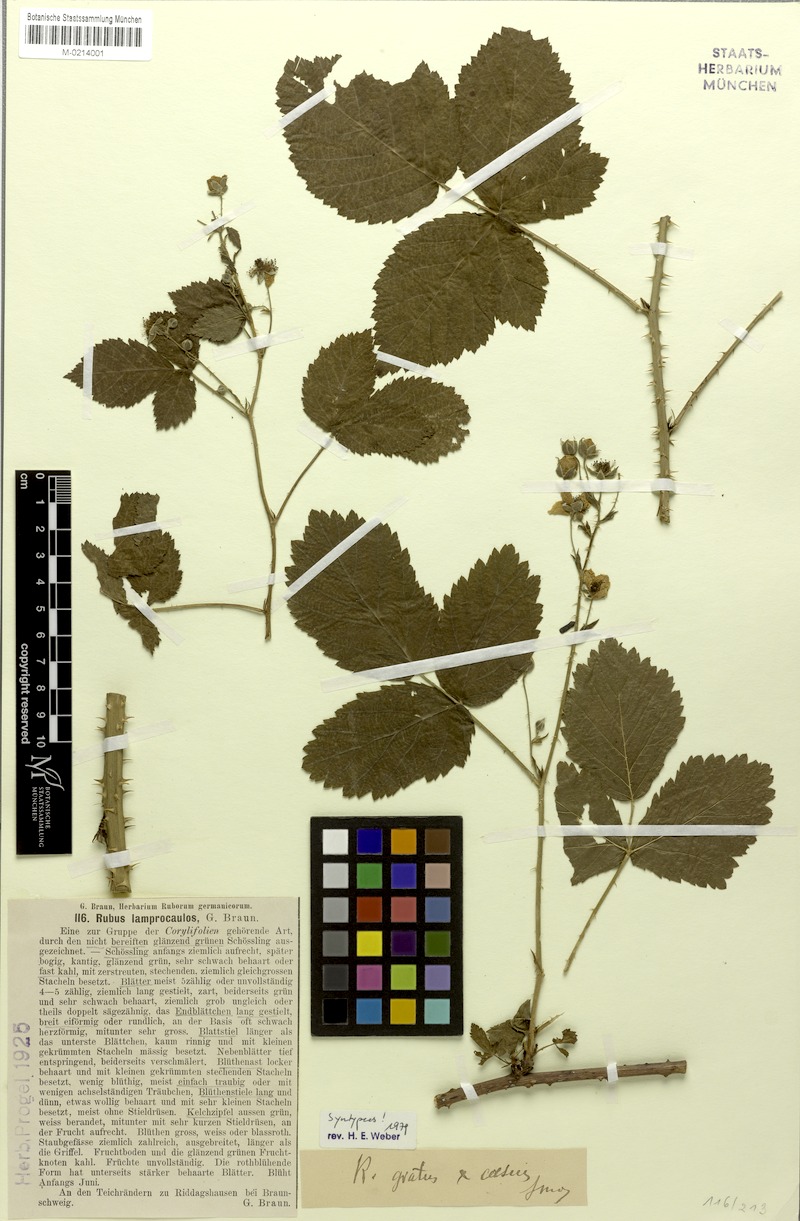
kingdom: Plantae
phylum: Tracheophyta
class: Magnoliopsida
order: Rosales
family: Rosaceae
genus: Rubus
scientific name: Rubus lamprocaulos
